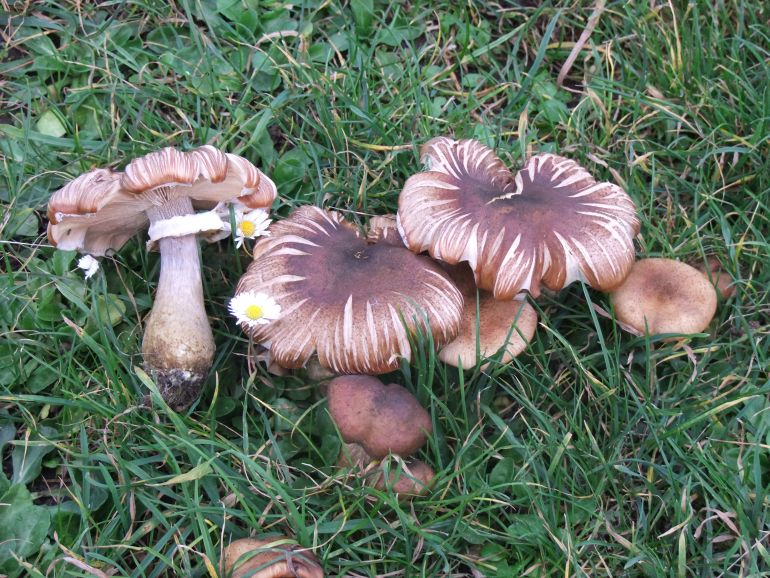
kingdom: Fungi
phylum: Basidiomycota
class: Agaricomycetes
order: Agaricales
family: Physalacriaceae
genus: Armillaria
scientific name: Armillaria lutea
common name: køllestokket honningsvamp
